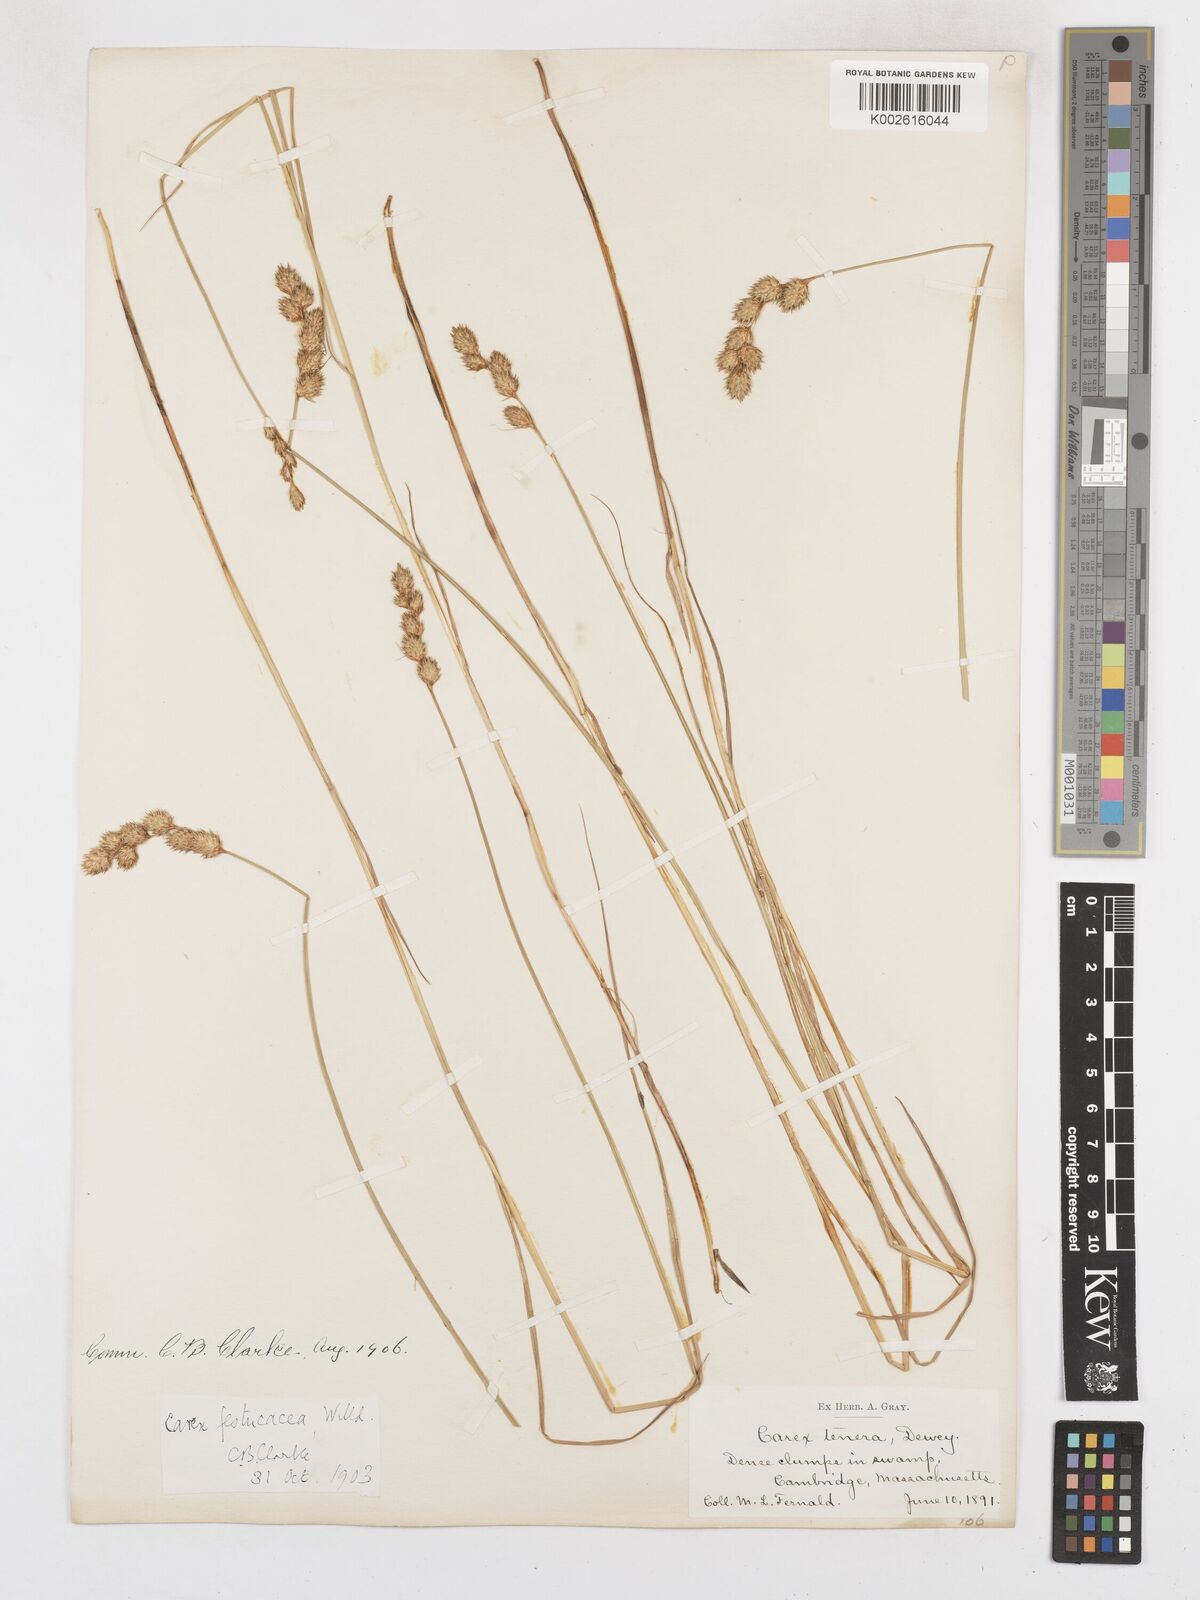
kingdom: Plantae
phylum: Tracheophyta
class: Liliopsida
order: Poales
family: Cyperaceae
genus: Carex
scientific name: Carex festucacea
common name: Fescue oval sedge
